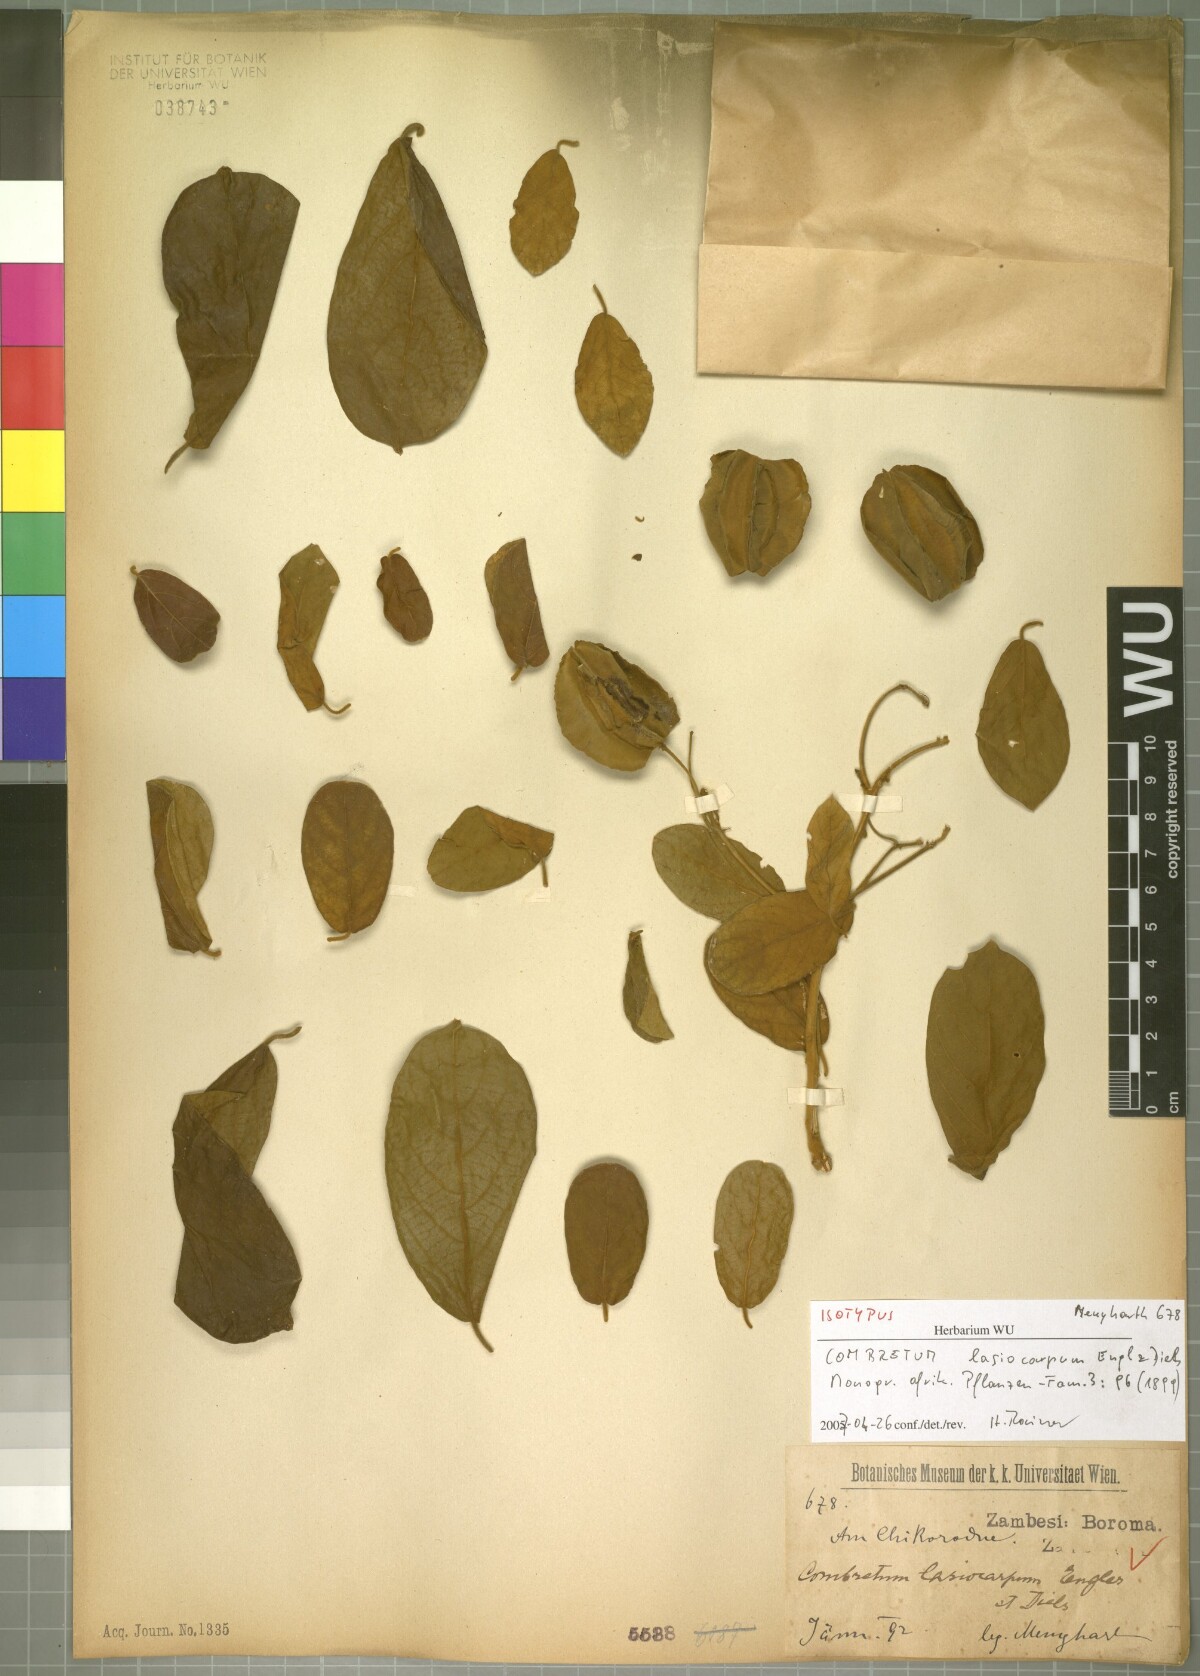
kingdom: Plantae
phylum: Tracheophyta
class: Magnoliopsida
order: Myrtales
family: Combretaceae
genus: Combretum
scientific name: Combretum lasiocarpum
